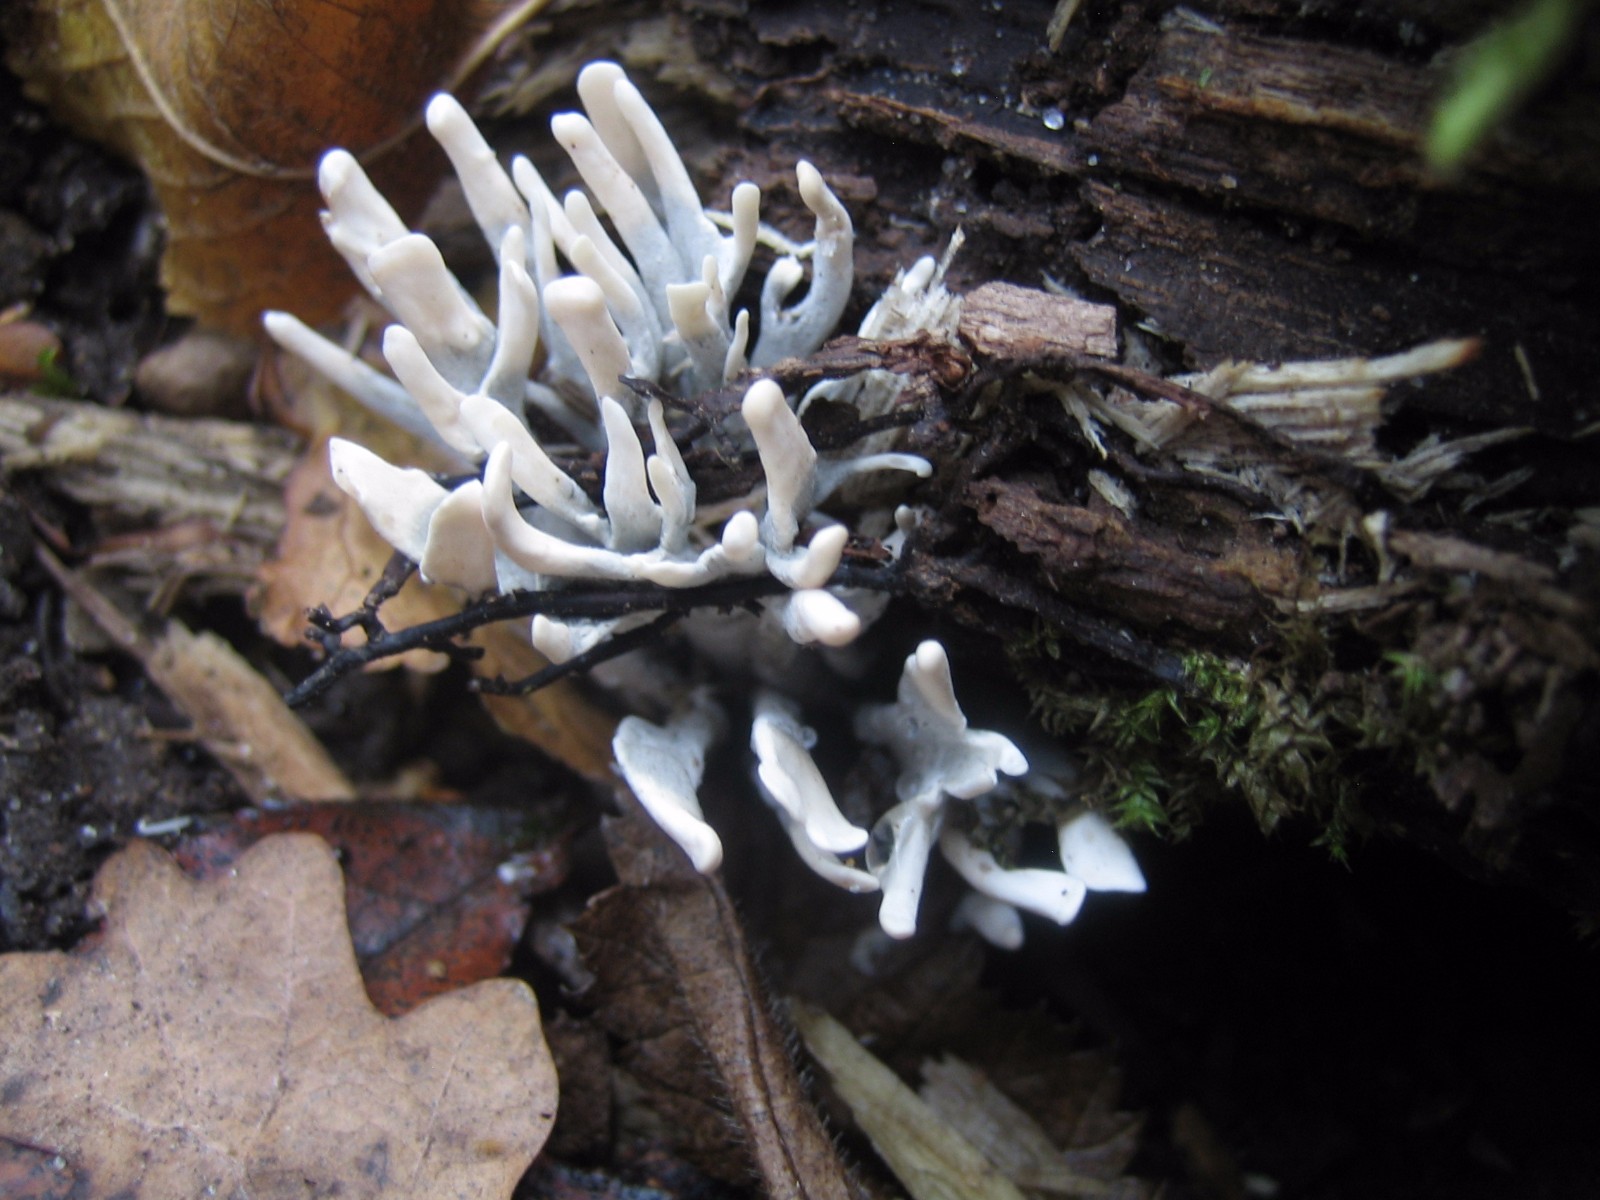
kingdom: Fungi
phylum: Ascomycota
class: Sordariomycetes
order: Xylariales
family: Xylariaceae
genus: Xylaria
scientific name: Xylaria hypoxylon
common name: grenet stødsvamp
